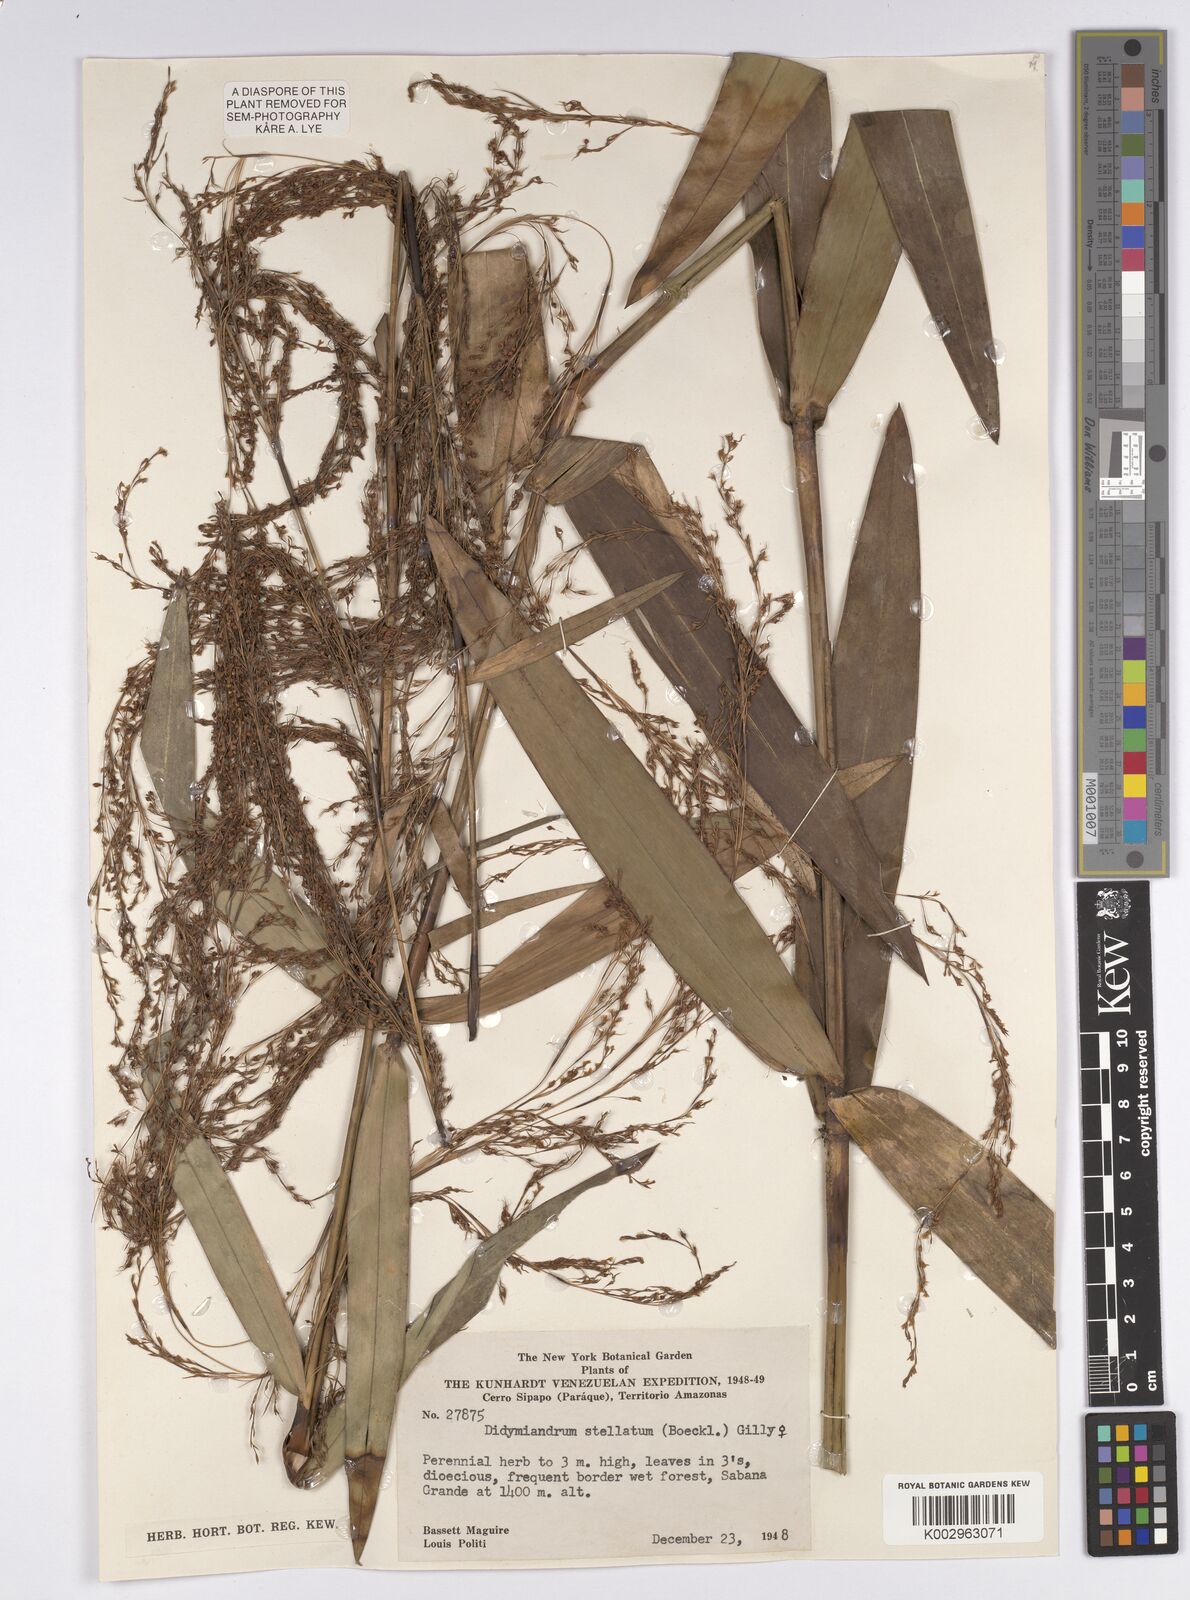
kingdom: Plantae
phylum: Tracheophyta
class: Liliopsida
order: Poales
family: Cyperaceae
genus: Didymiandrum
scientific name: Didymiandrum stellatum
